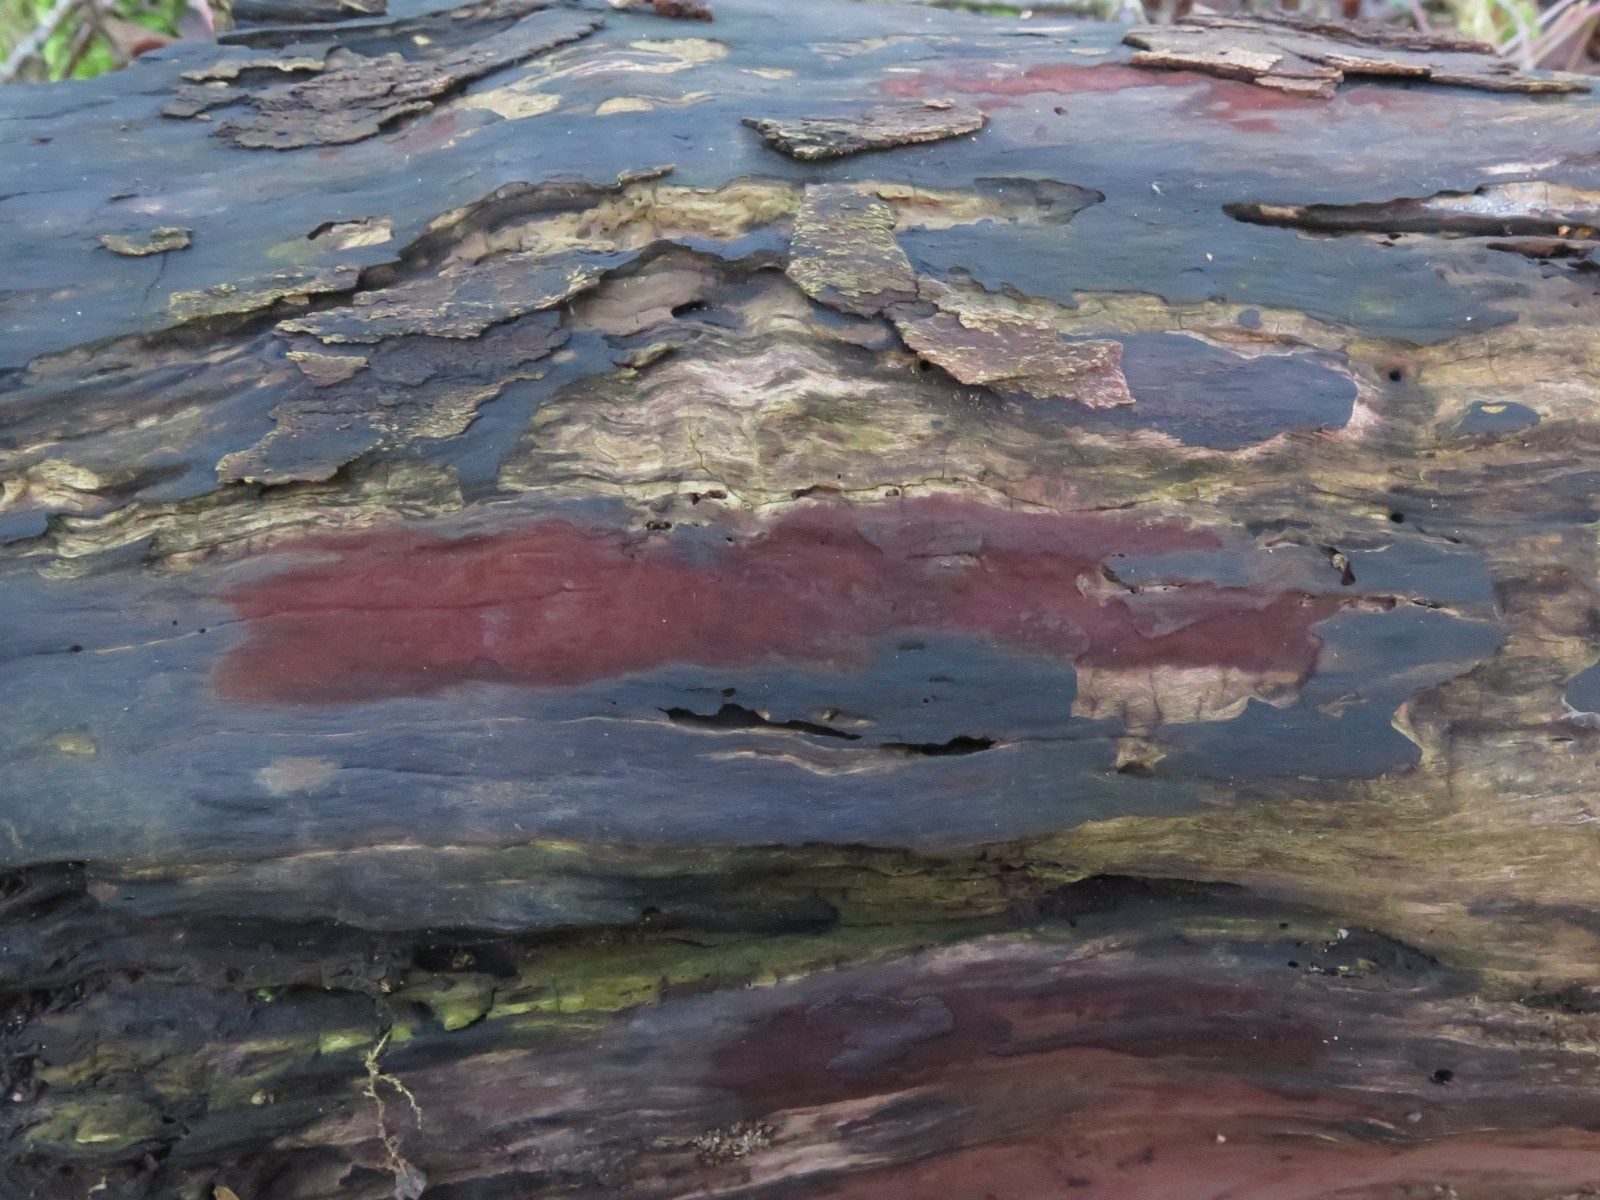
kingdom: Fungi
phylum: Ascomycota
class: Sordariomycetes
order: Xylariales
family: Hypoxylaceae
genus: Hypoxylon
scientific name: Hypoxylon
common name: kulbær
